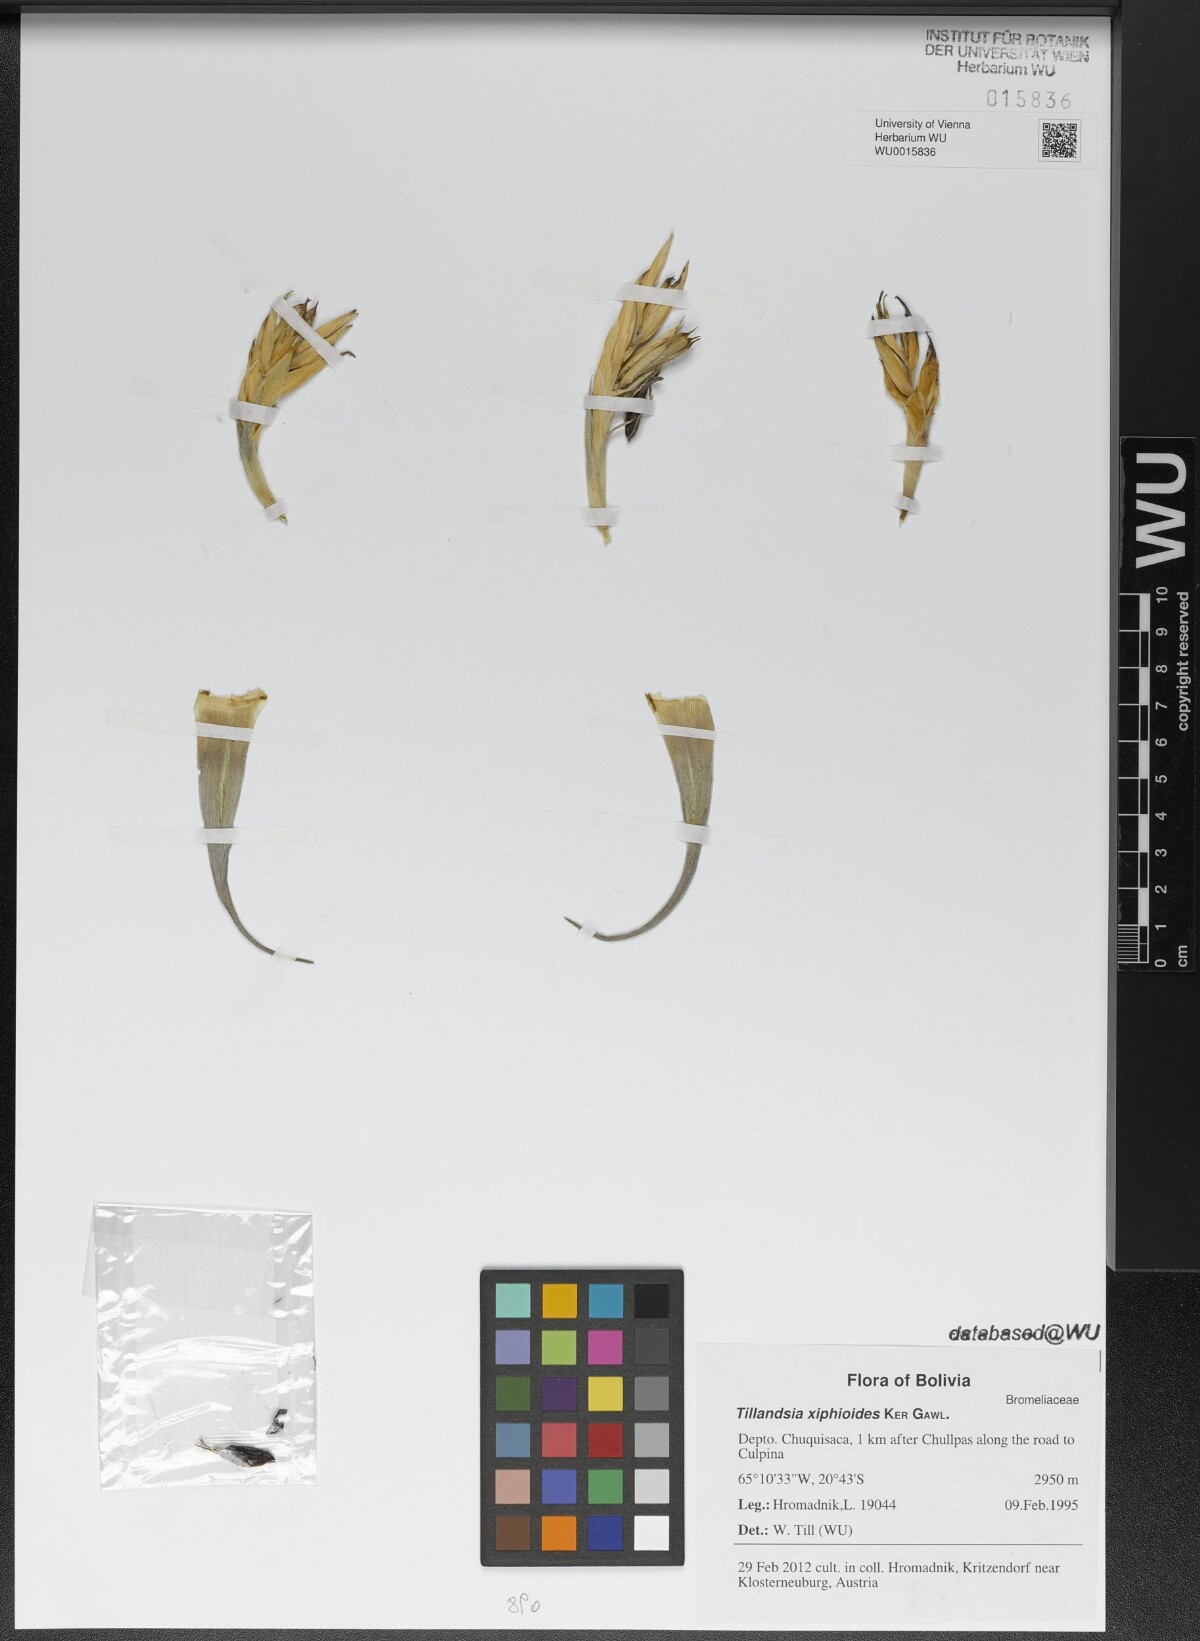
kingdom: Plantae
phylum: Tracheophyta
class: Liliopsida
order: Poales
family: Bromeliaceae
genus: Tillandsia
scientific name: Tillandsia xiphioides
